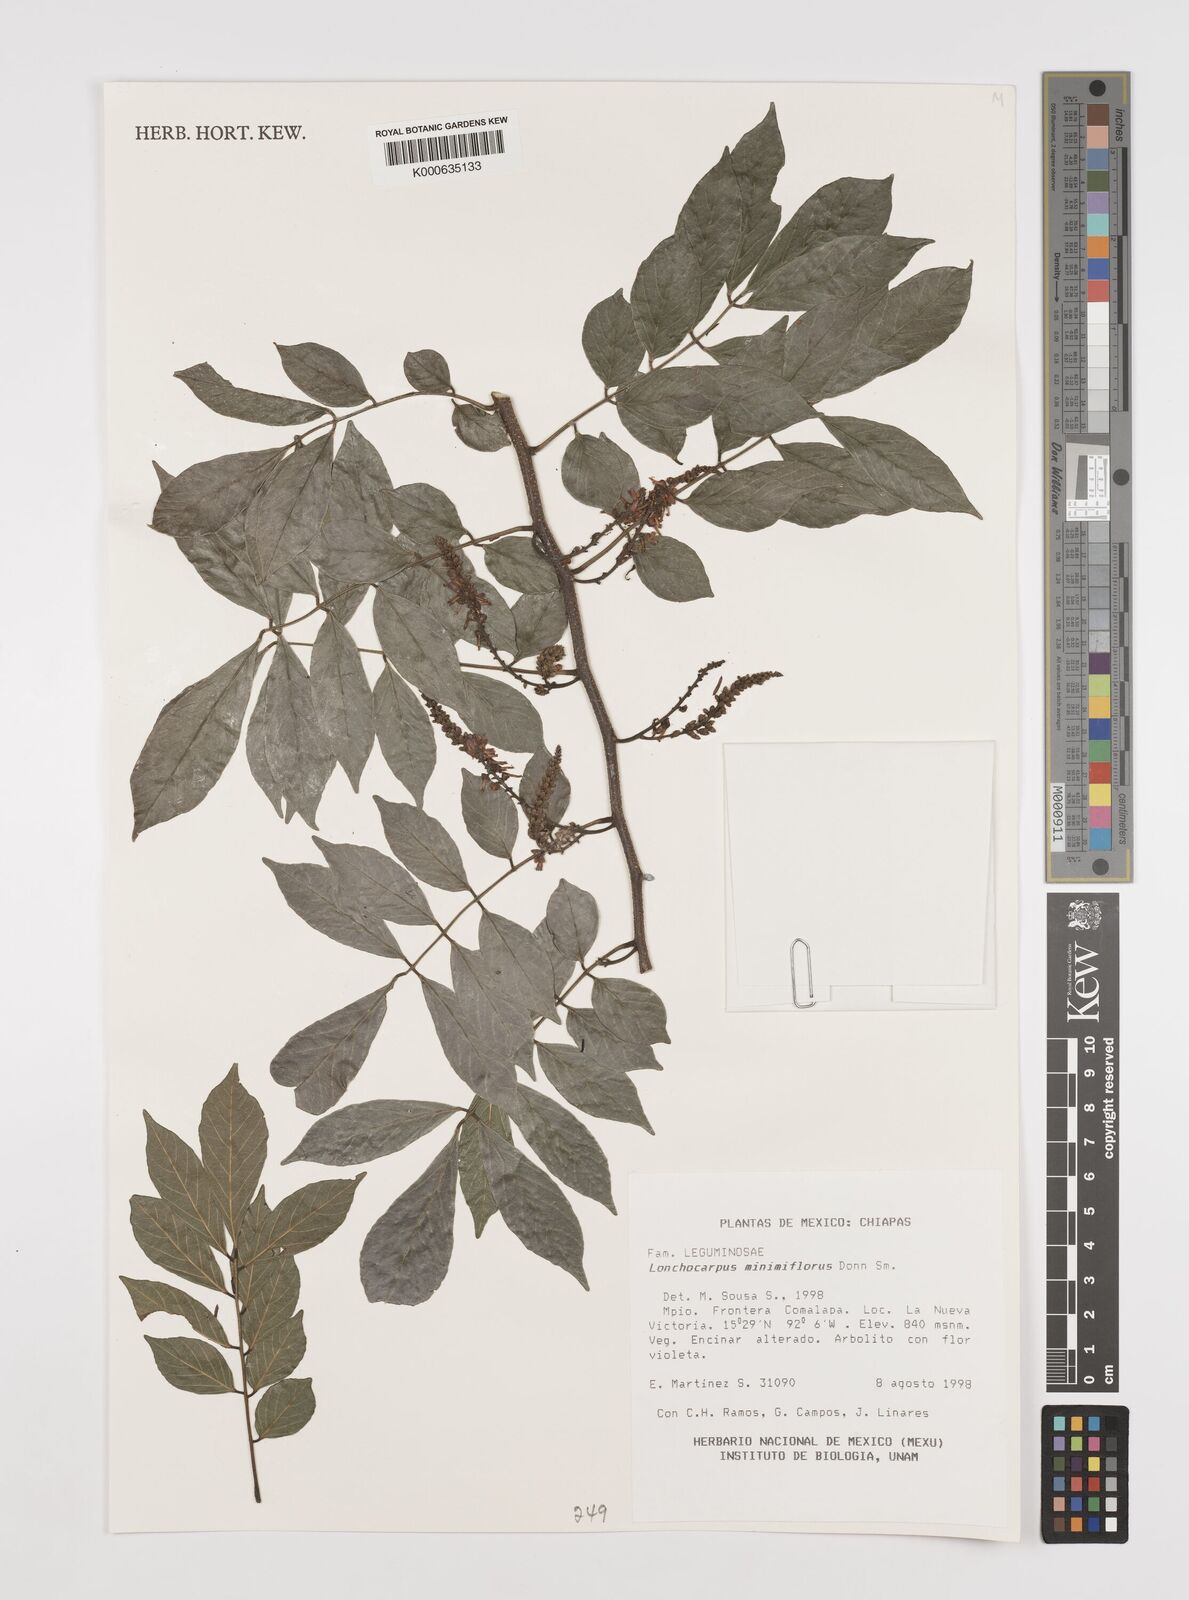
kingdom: Plantae
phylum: Tracheophyta
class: Magnoliopsida
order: Fabales
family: Fabaceae
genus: Lonchocarpus
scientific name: Lonchocarpus minimiflorus
